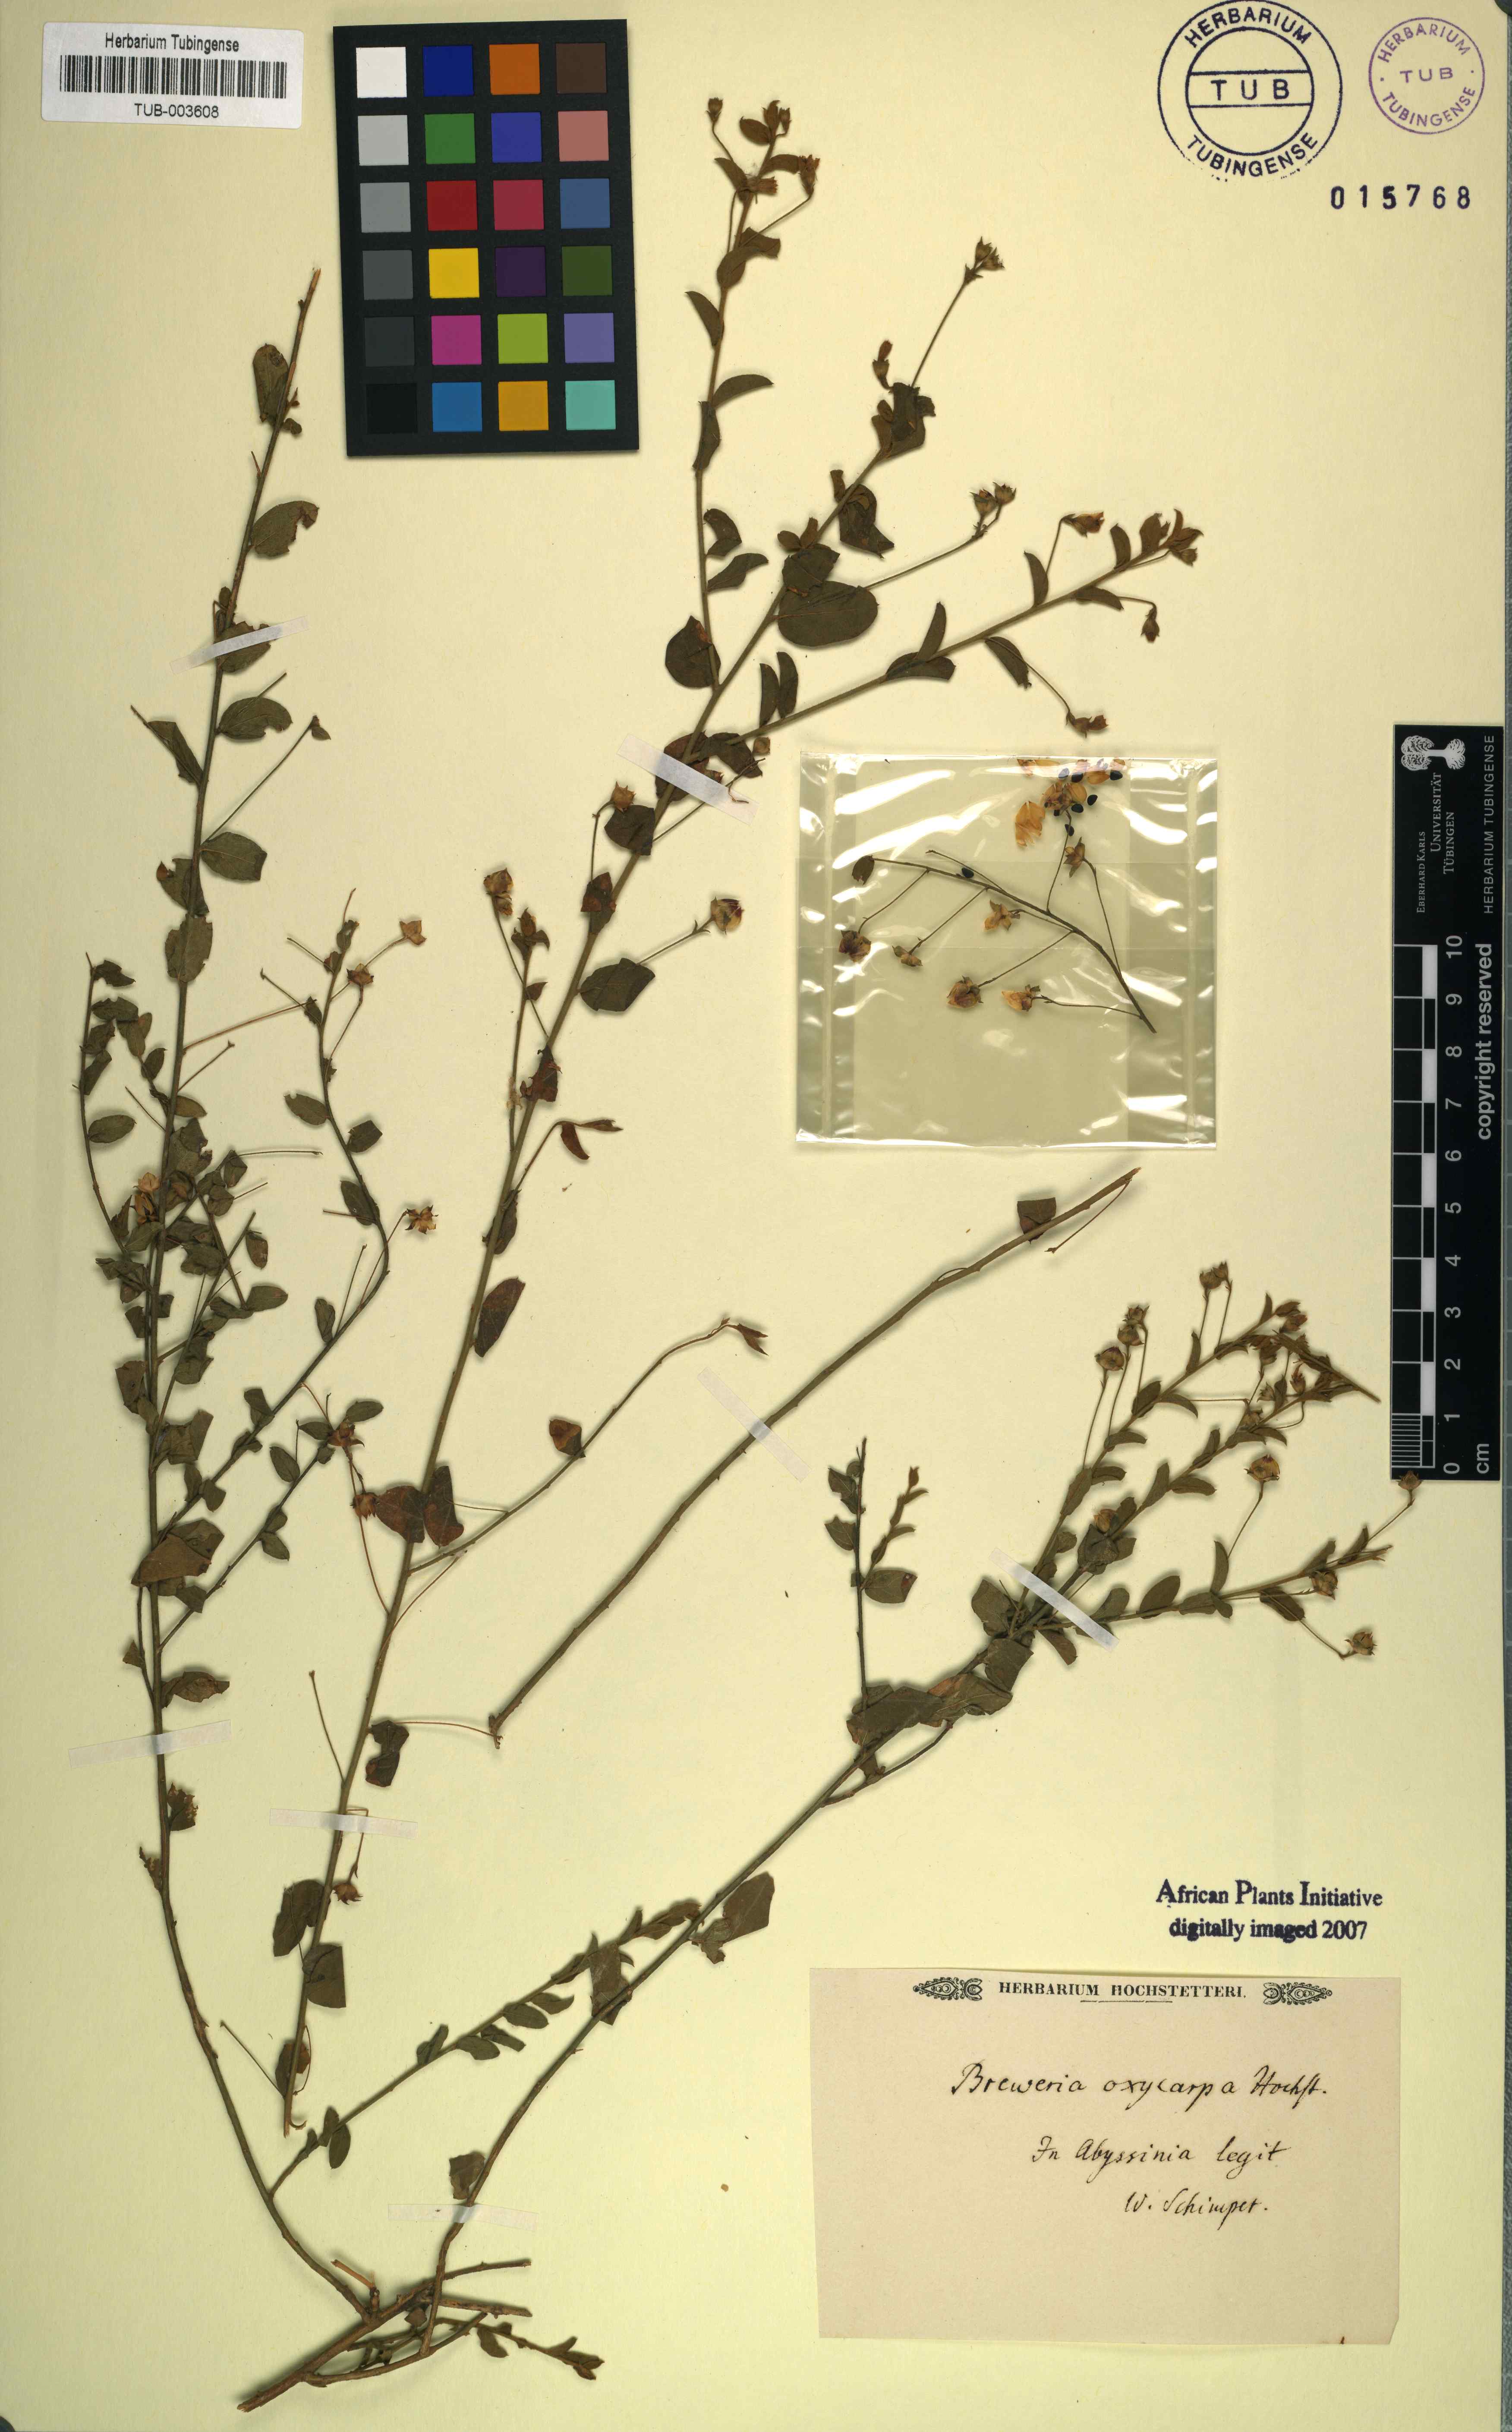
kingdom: Plantae
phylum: Tracheophyta
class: Magnoliopsida
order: Solanales
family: Convolvulaceae
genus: Seddera
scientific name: Seddera evolvuloides
